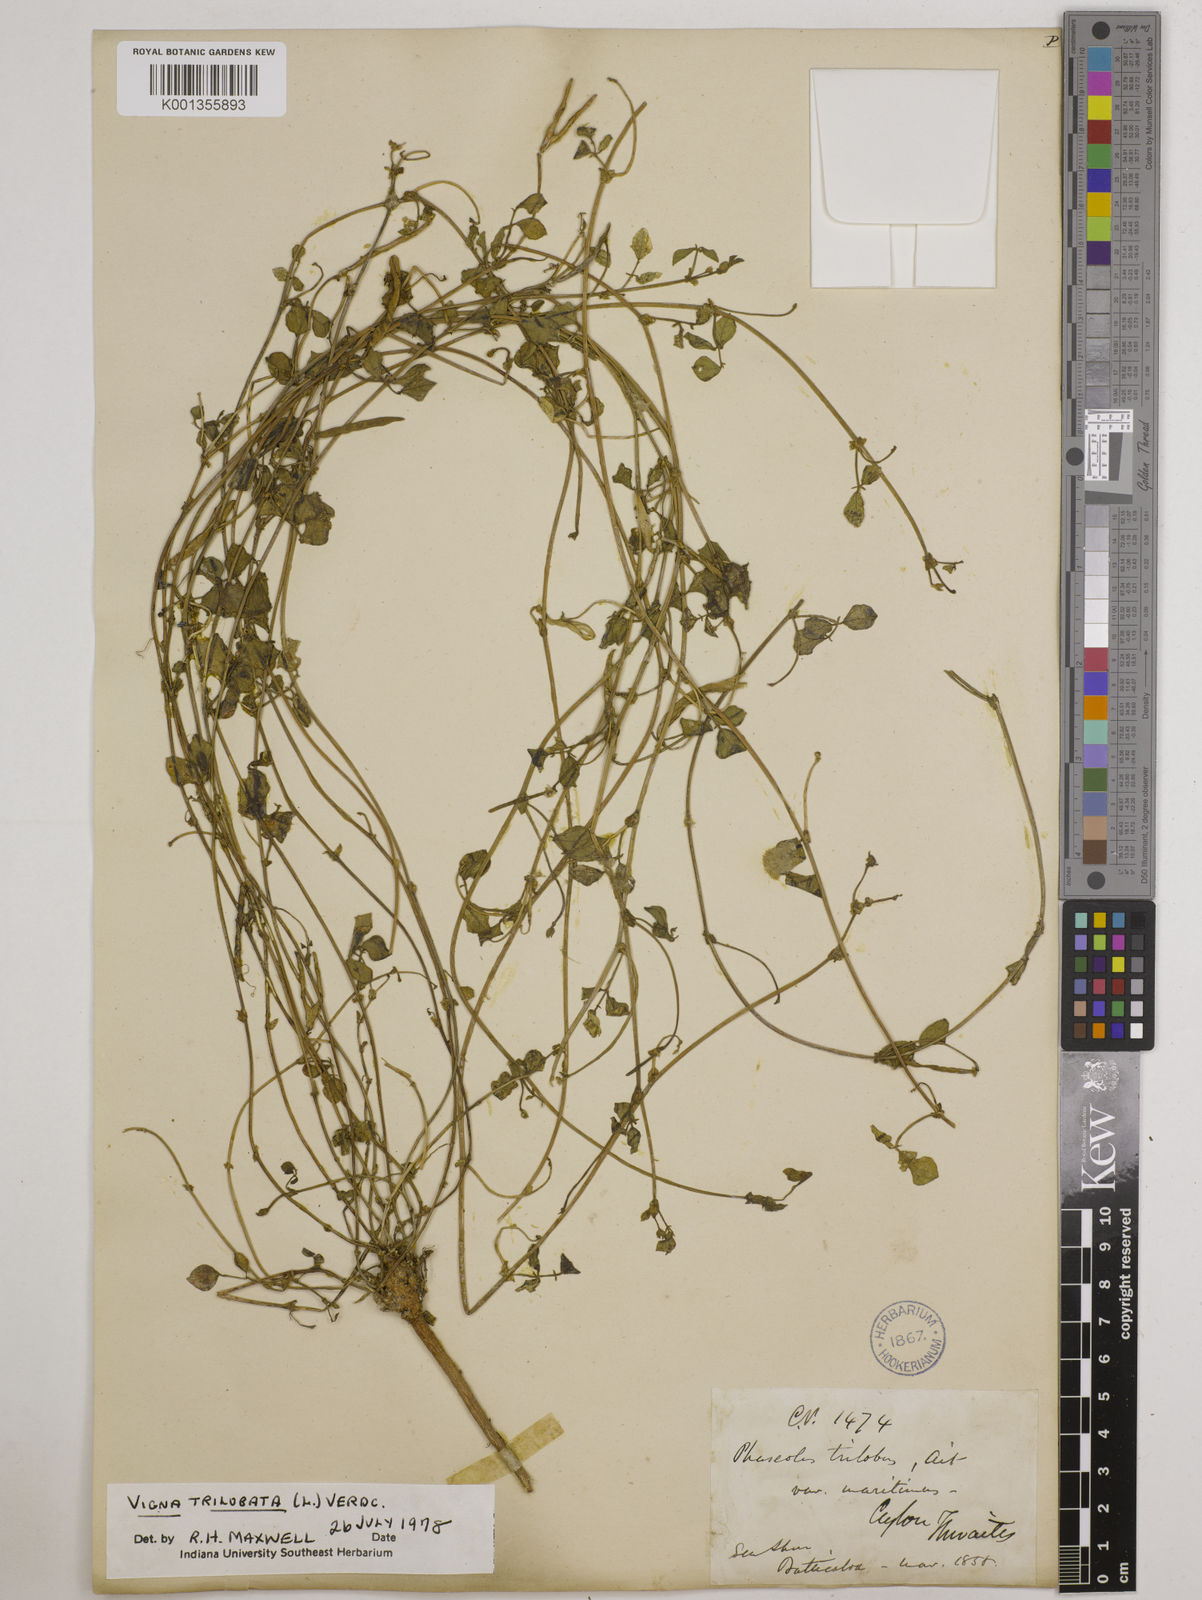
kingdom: Plantae
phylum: Tracheophyta
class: Magnoliopsida
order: Fabales
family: Fabaceae
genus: Vigna
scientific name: Vigna trilobata
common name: Jungli-bean
